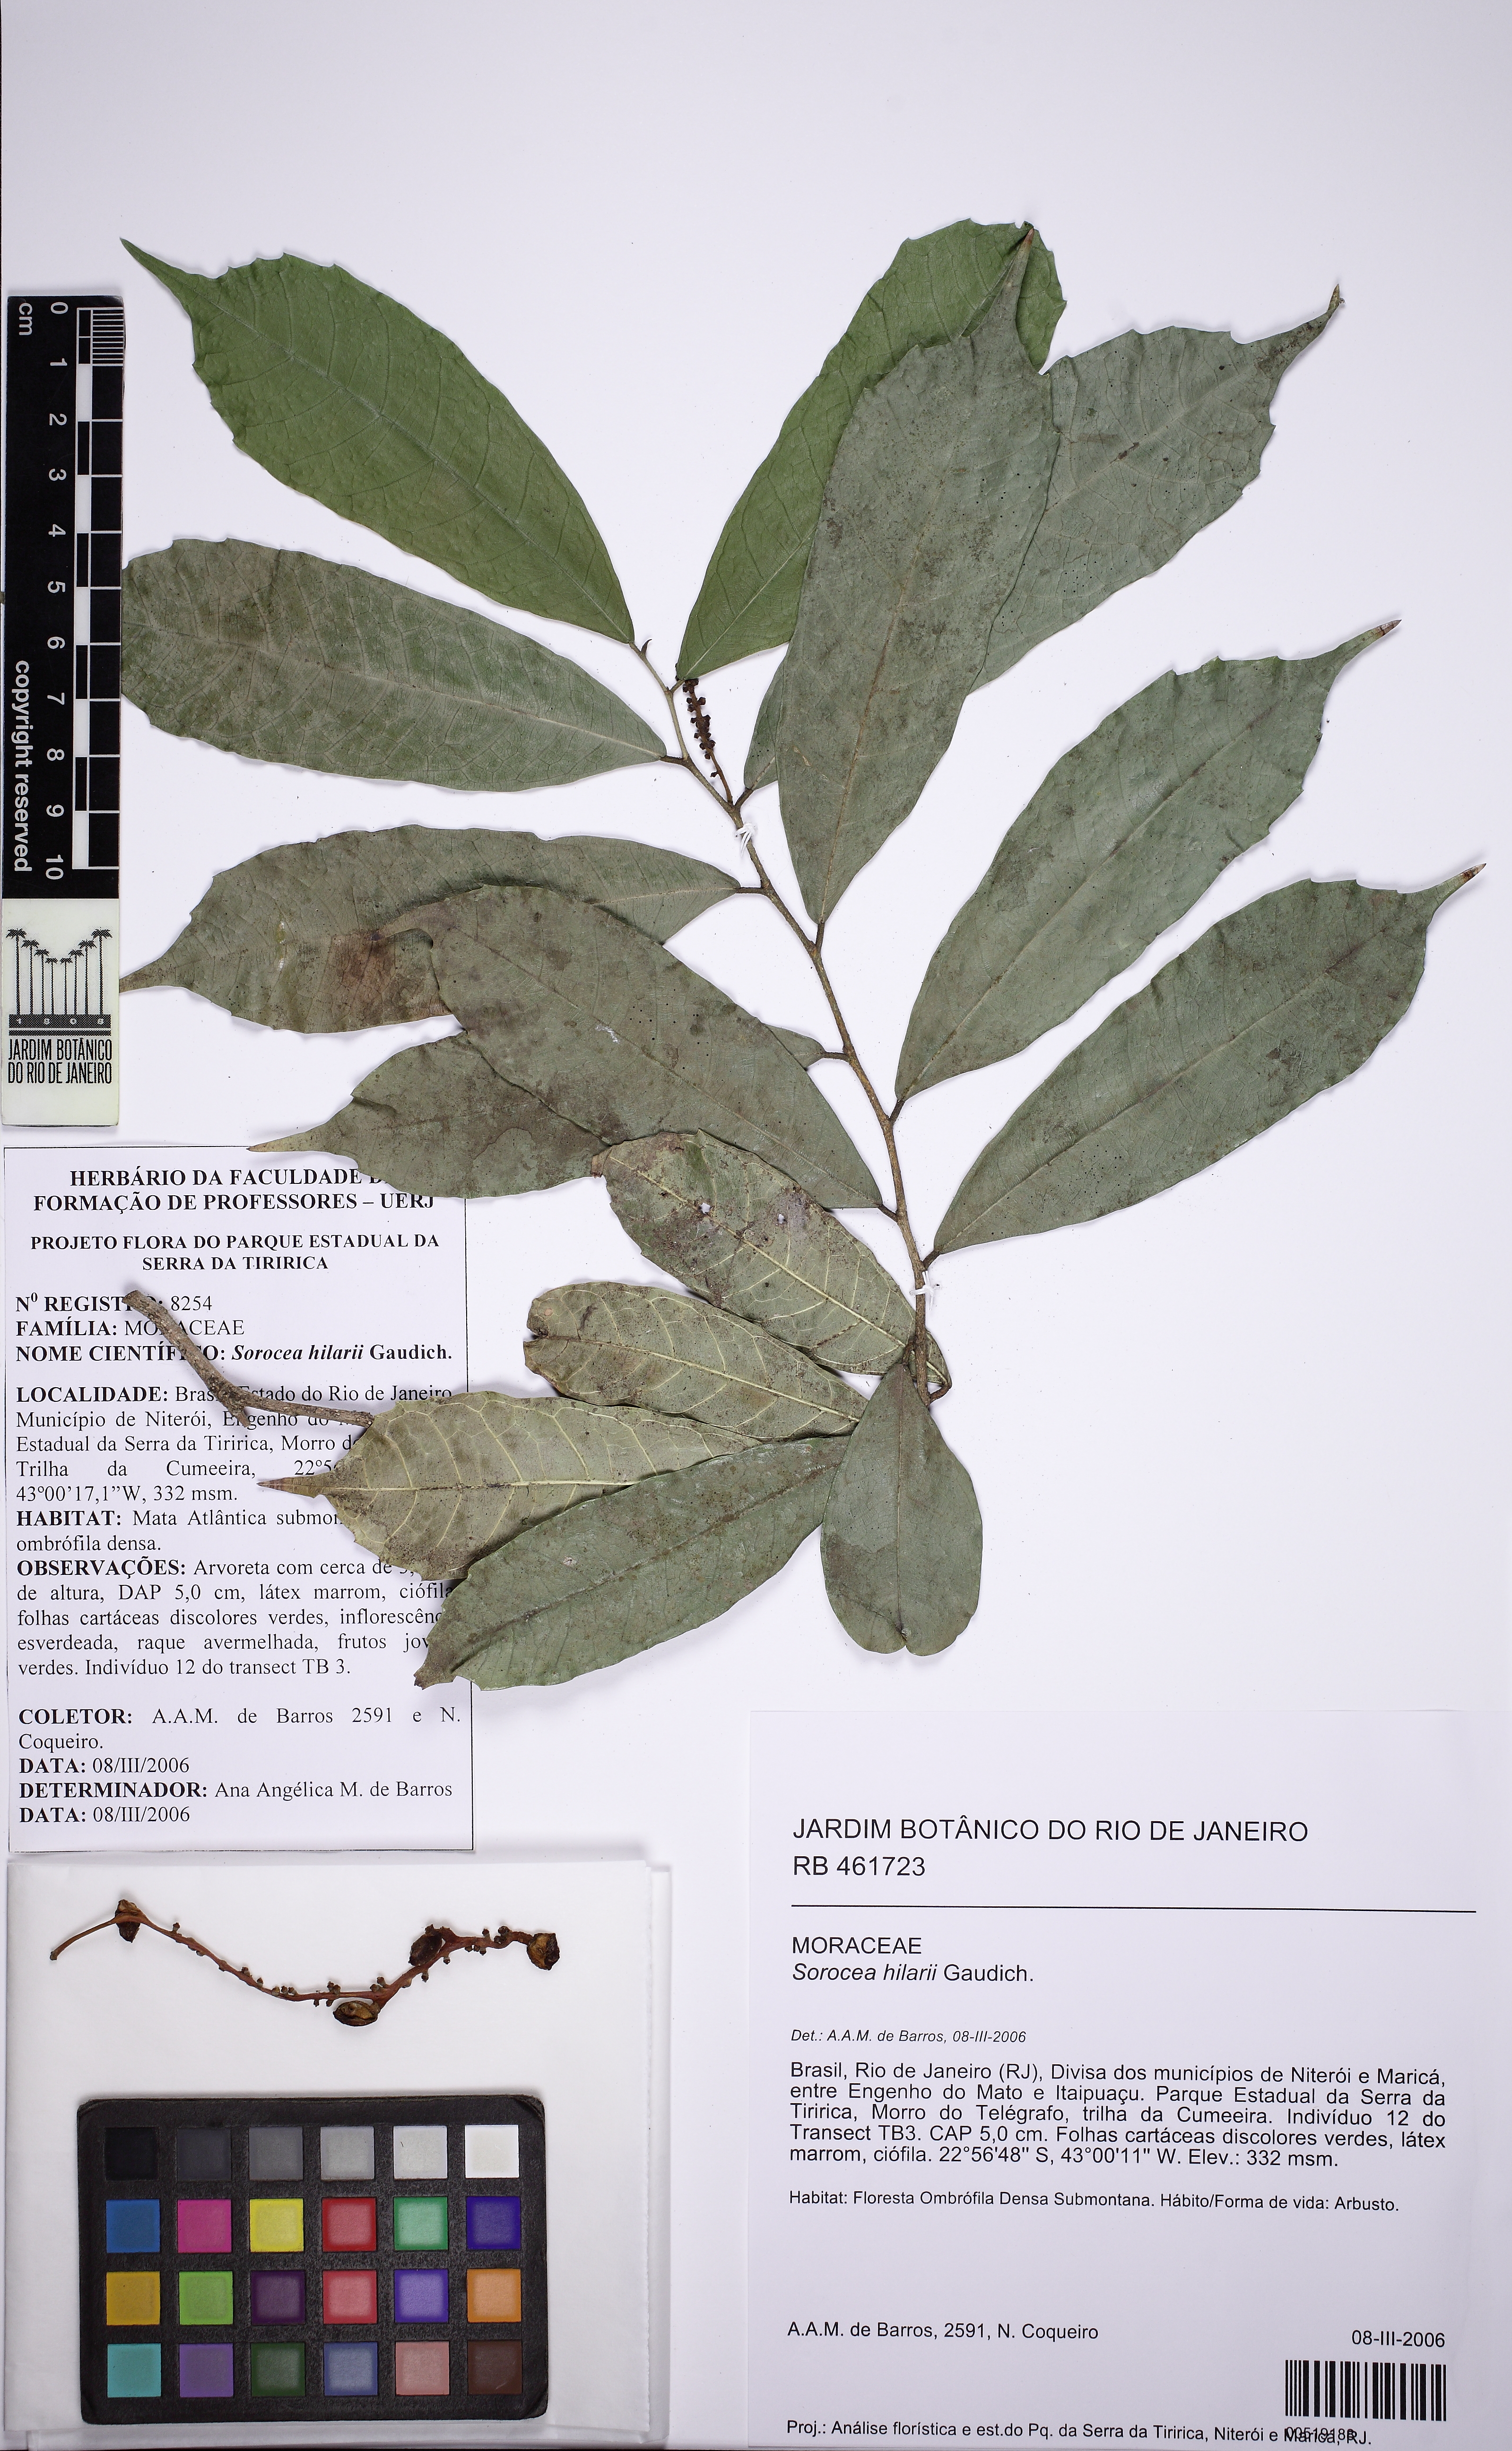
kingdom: Plantae
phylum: Tracheophyta
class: Magnoliopsida
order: Rosales
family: Moraceae
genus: Sorocea
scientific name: Sorocea hilarii
